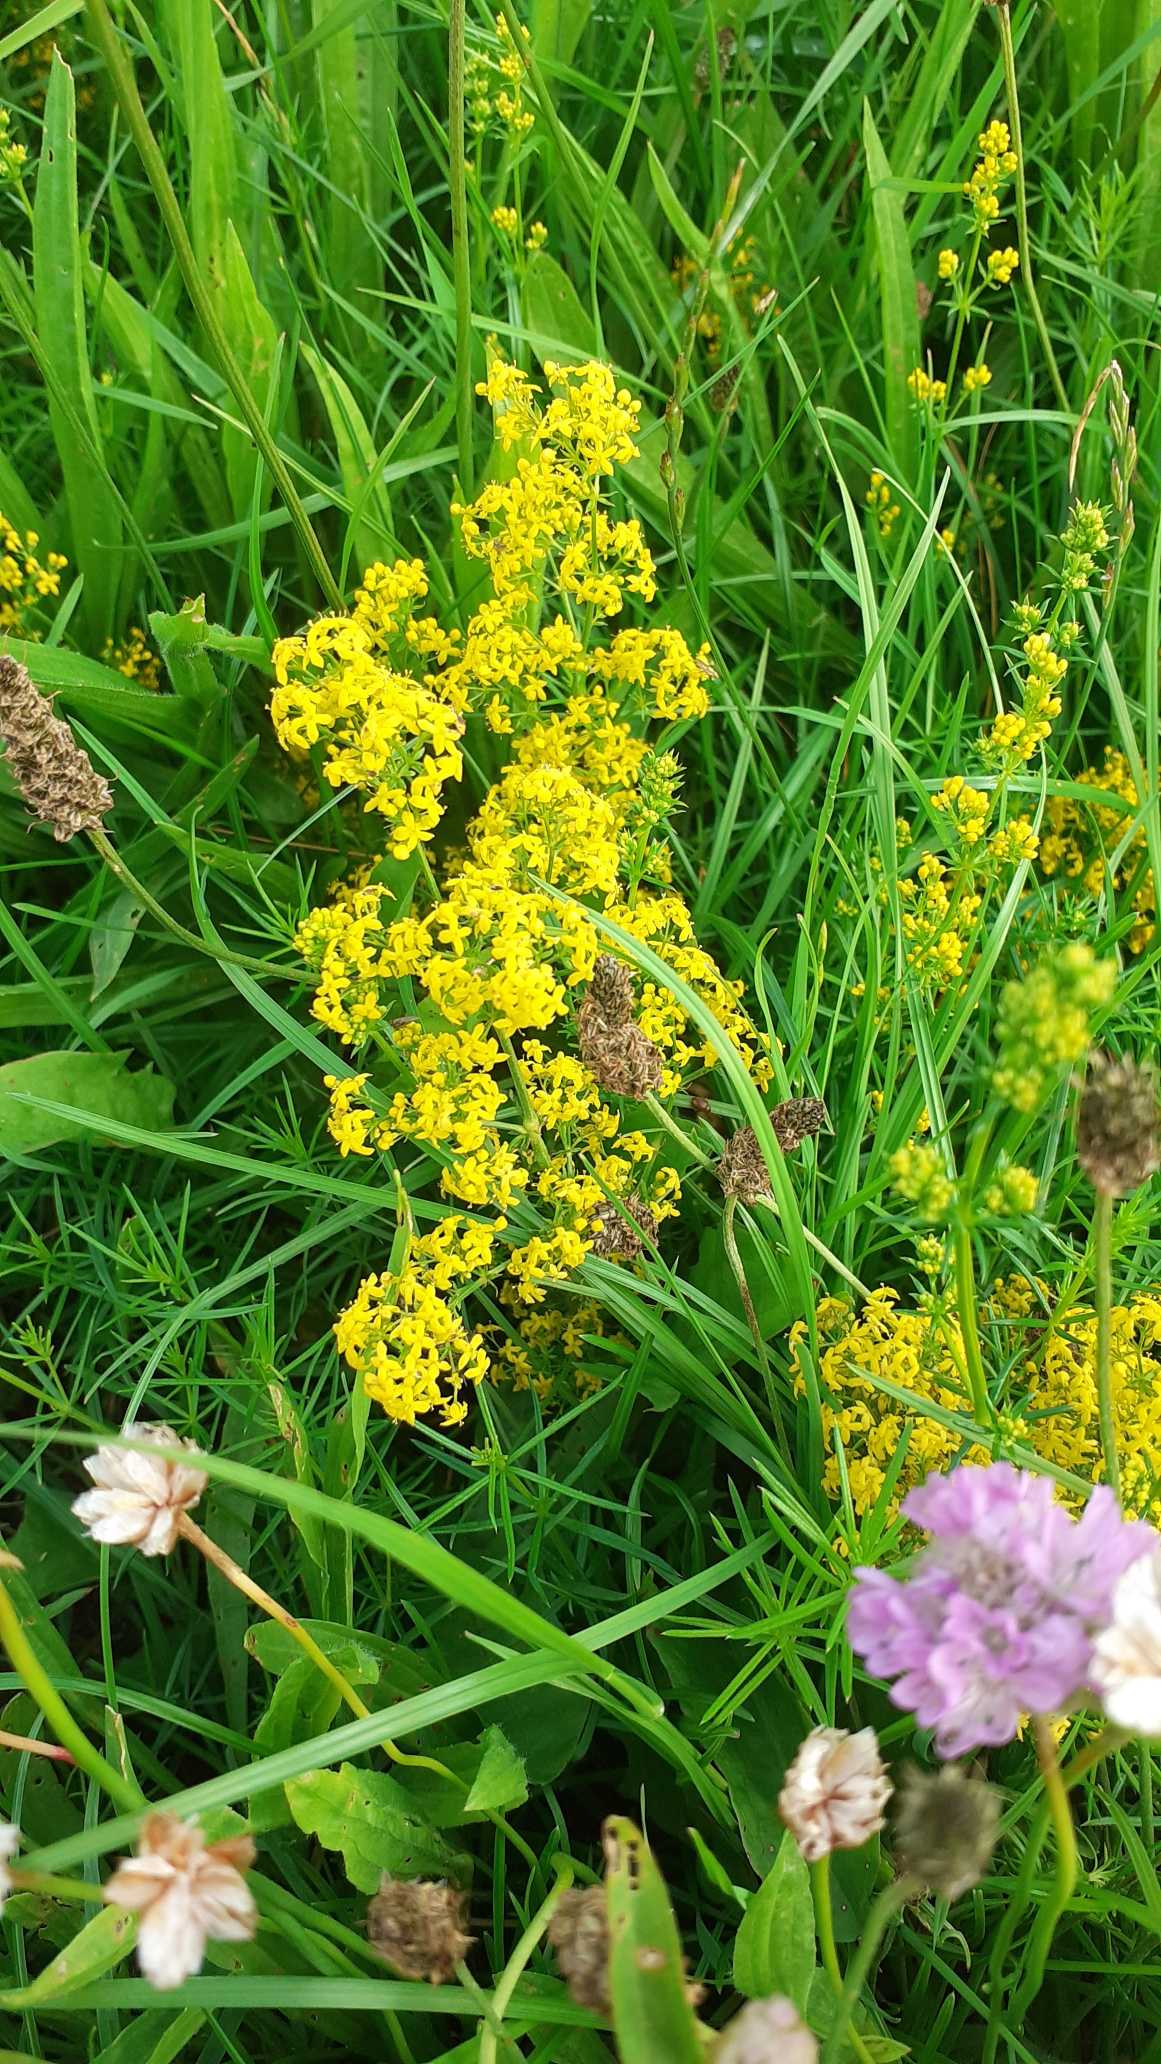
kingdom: Plantae
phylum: Tracheophyta
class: Magnoliopsida
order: Gentianales
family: Rubiaceae
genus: Galium
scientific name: Galium verum
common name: Gul snerre
